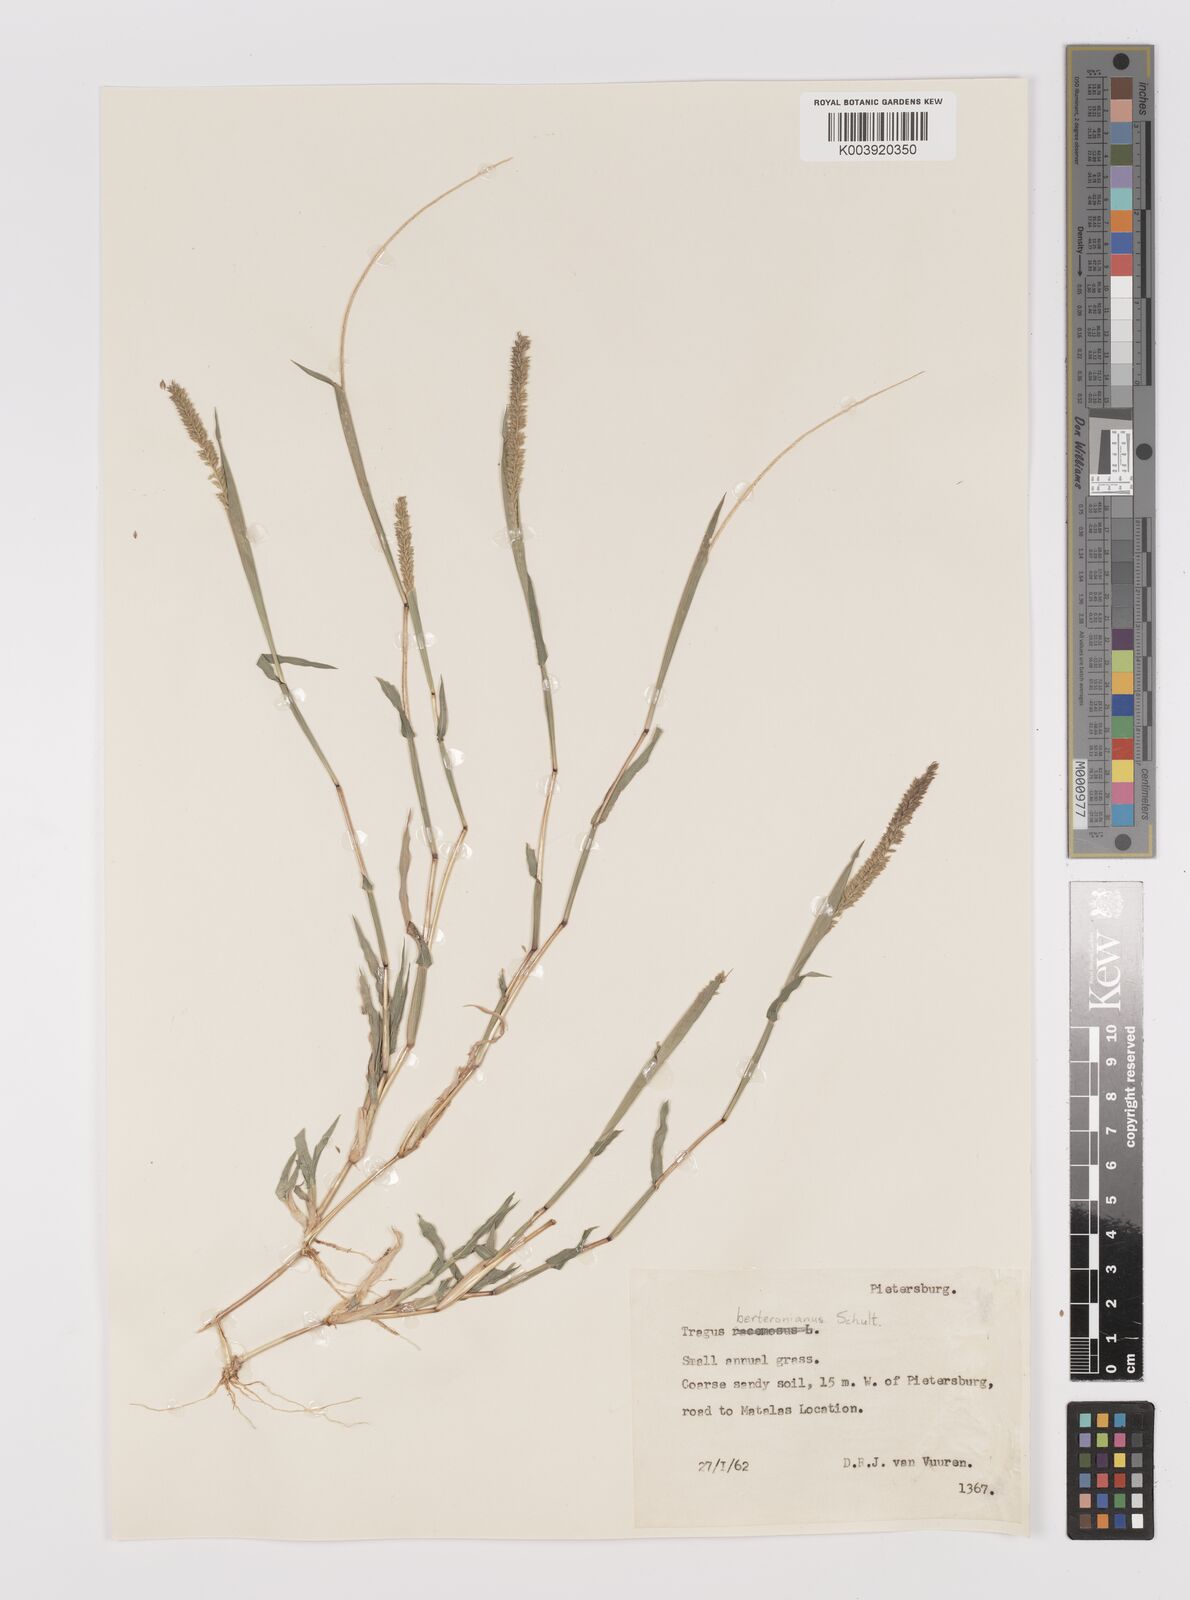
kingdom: Plantae
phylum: Tracheophyta
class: Liliopsida
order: Poales
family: Poaceae
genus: Tragus
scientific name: Tragus berteronianus
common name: African bur-grass
